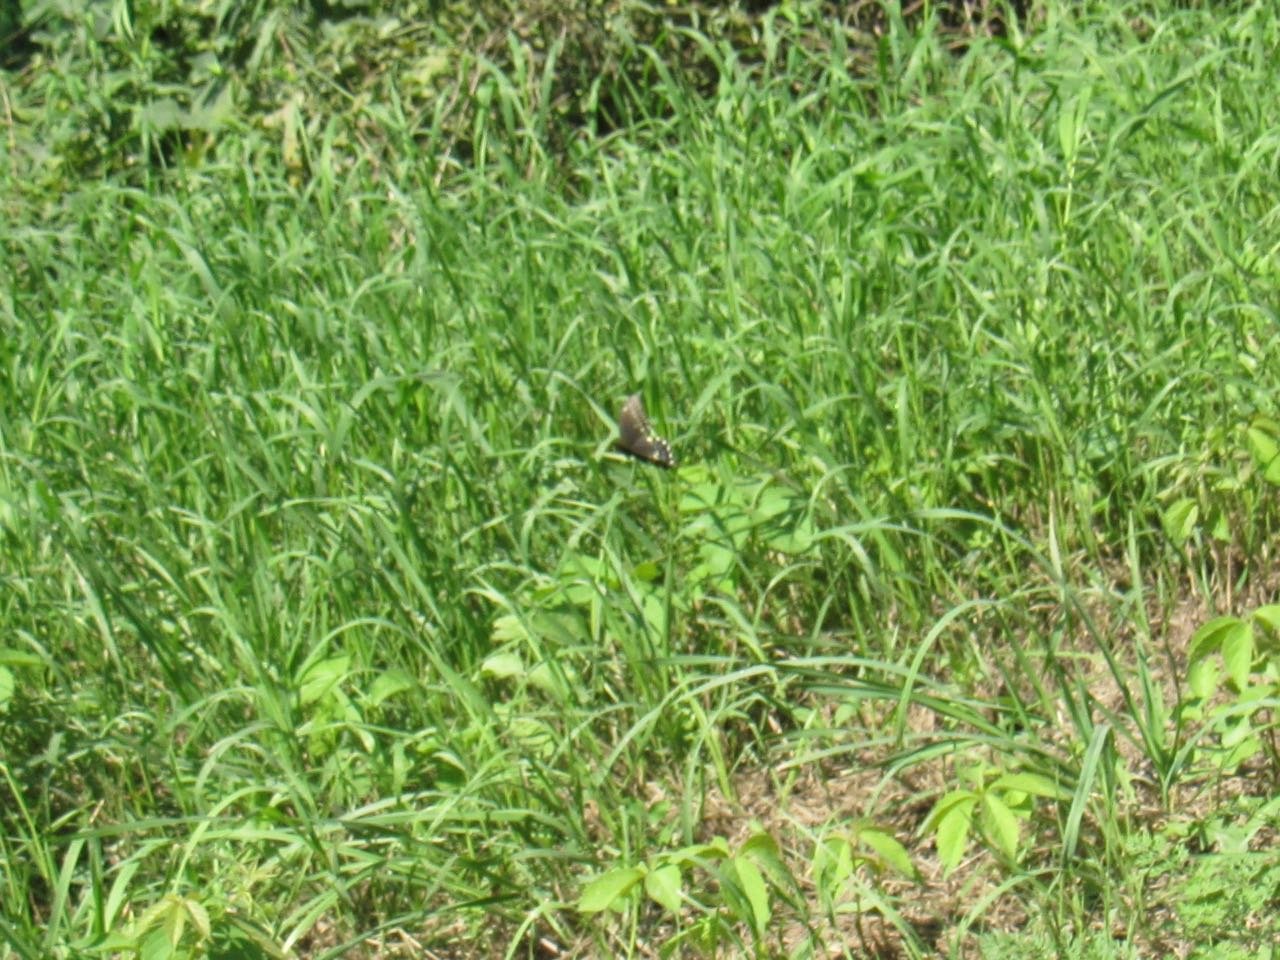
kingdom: Animalia
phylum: Arthropoda
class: Insecta
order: Lepidoptera
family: Papilionidae
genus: Papilio
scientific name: Papilio polyxenes
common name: Black Swallowtail
